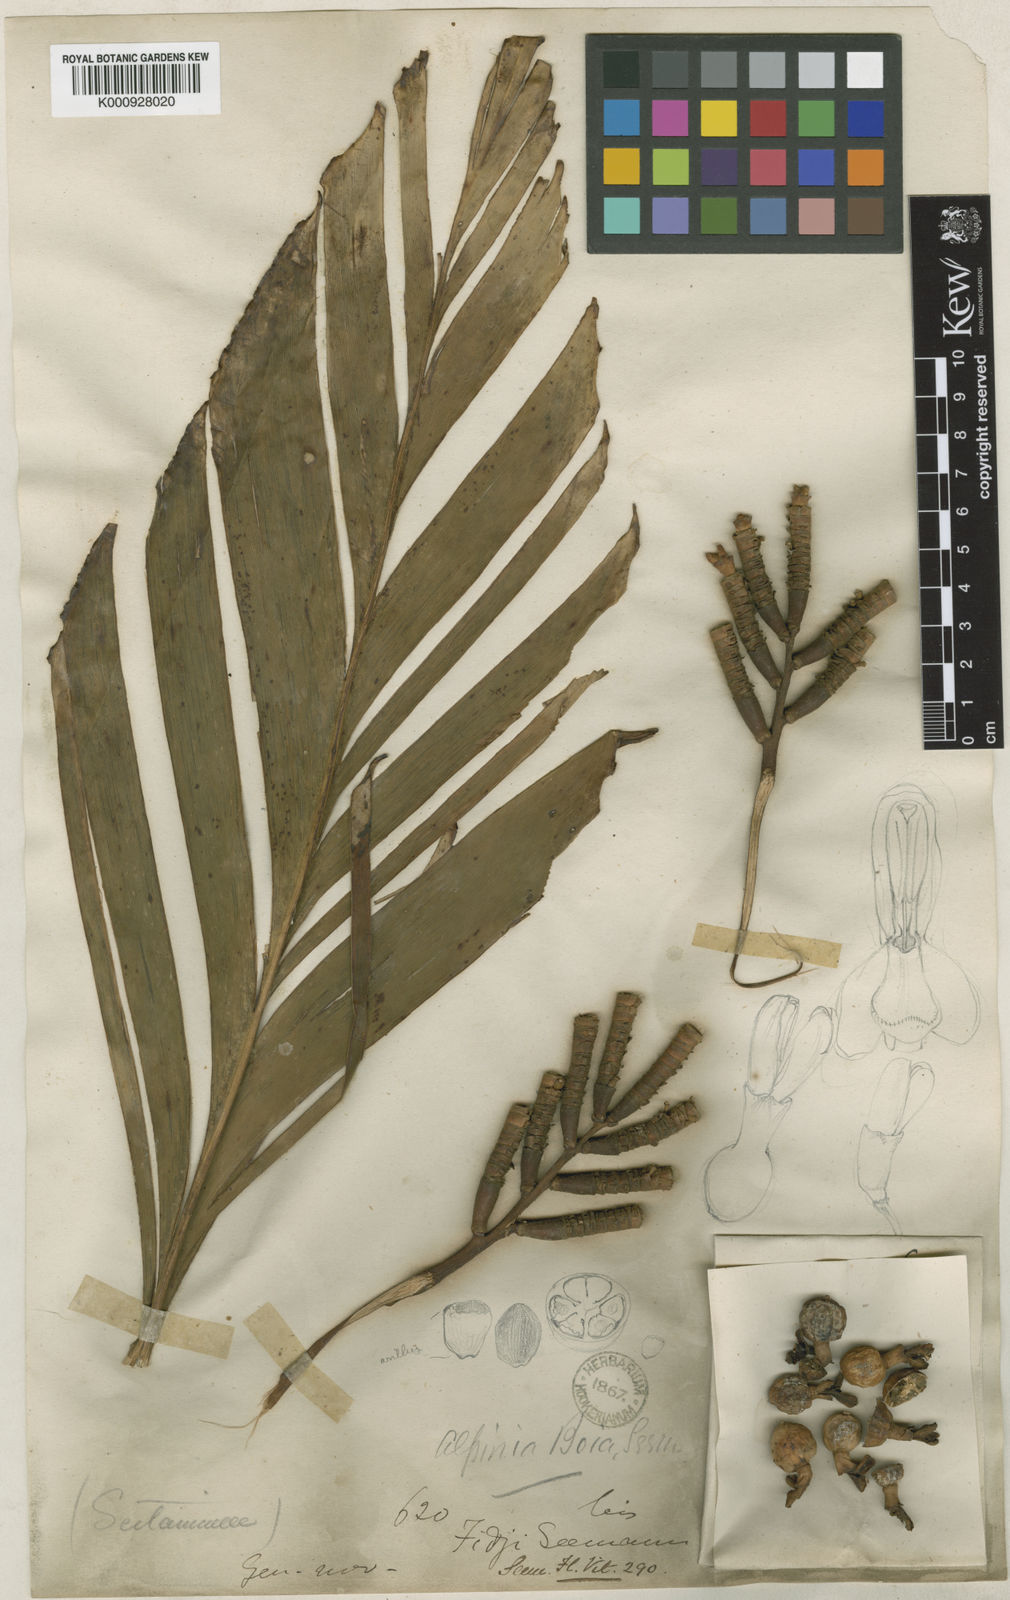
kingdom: Plantae
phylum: Tracheophyta
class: Liliopsida
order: Zingiberales
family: Zingiberaceae
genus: Alpinia
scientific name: Alpinia boia
